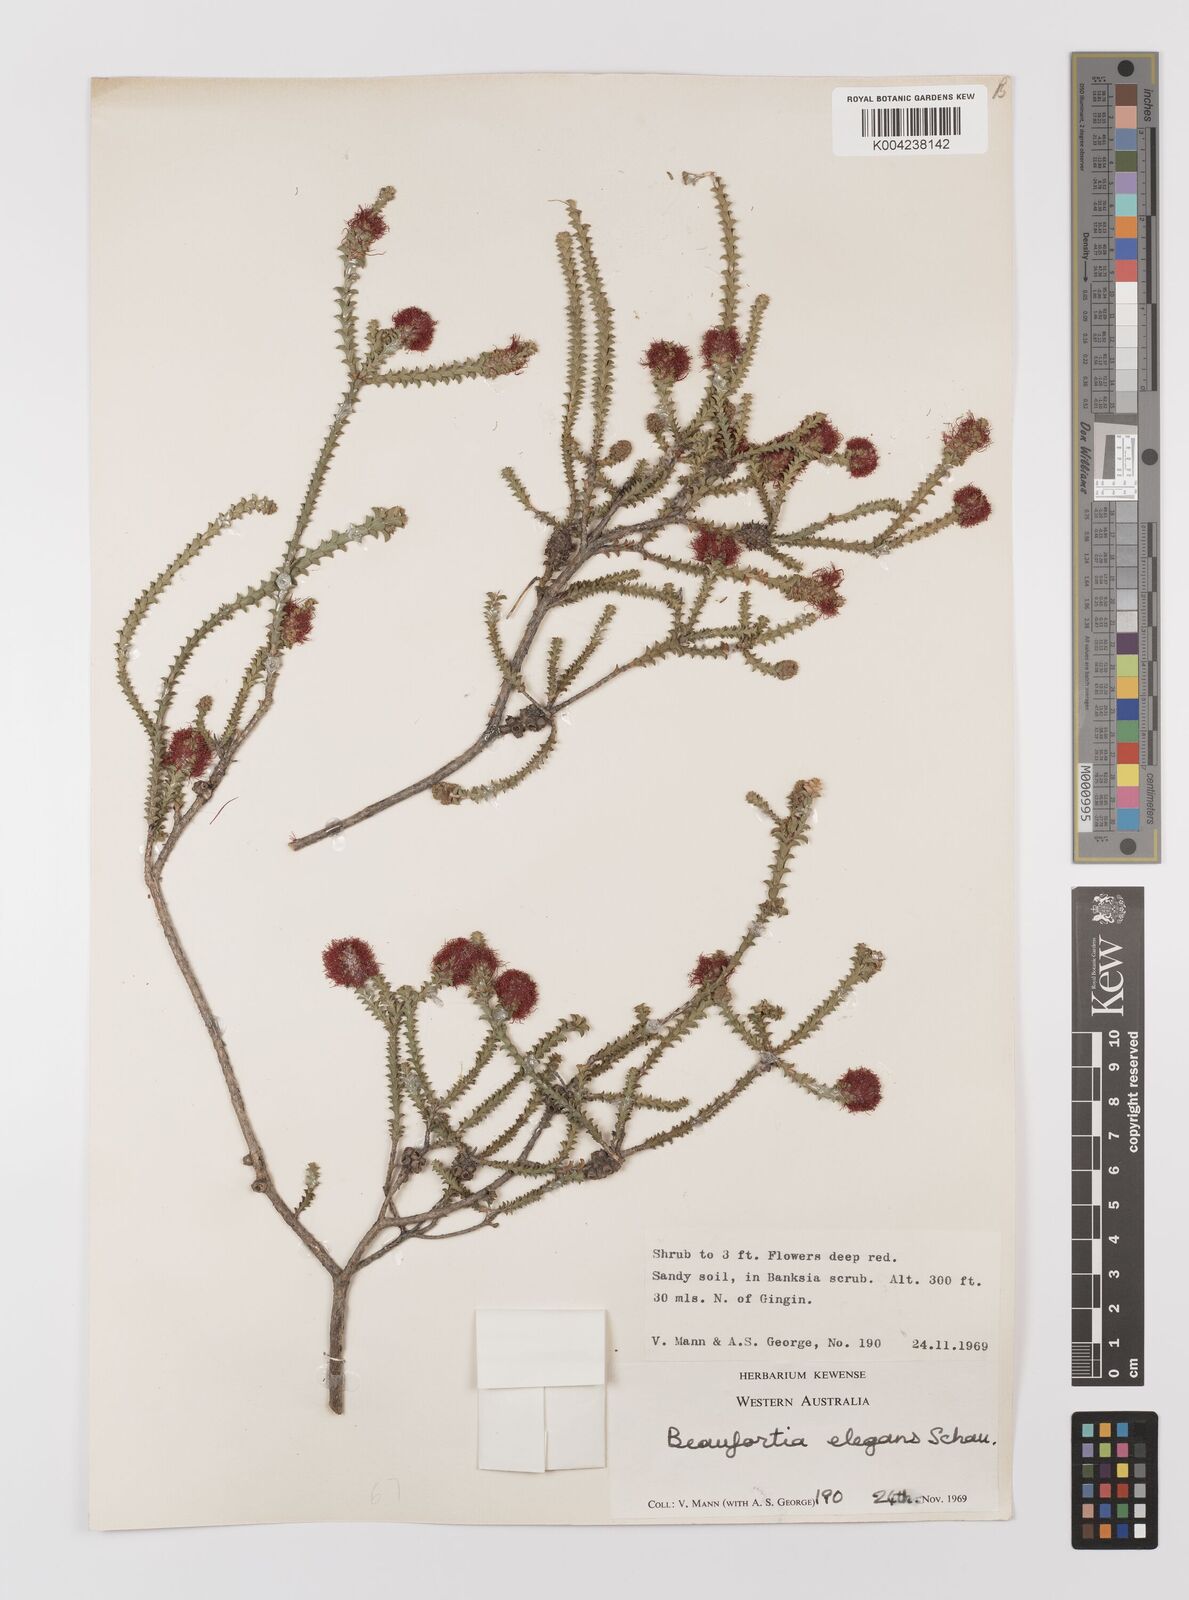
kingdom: Plantae
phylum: Tracheophyta
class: Magnoliopsida
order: Myrtales
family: Myrtaceae
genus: Melaleuca
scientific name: Melaleuca scitula
